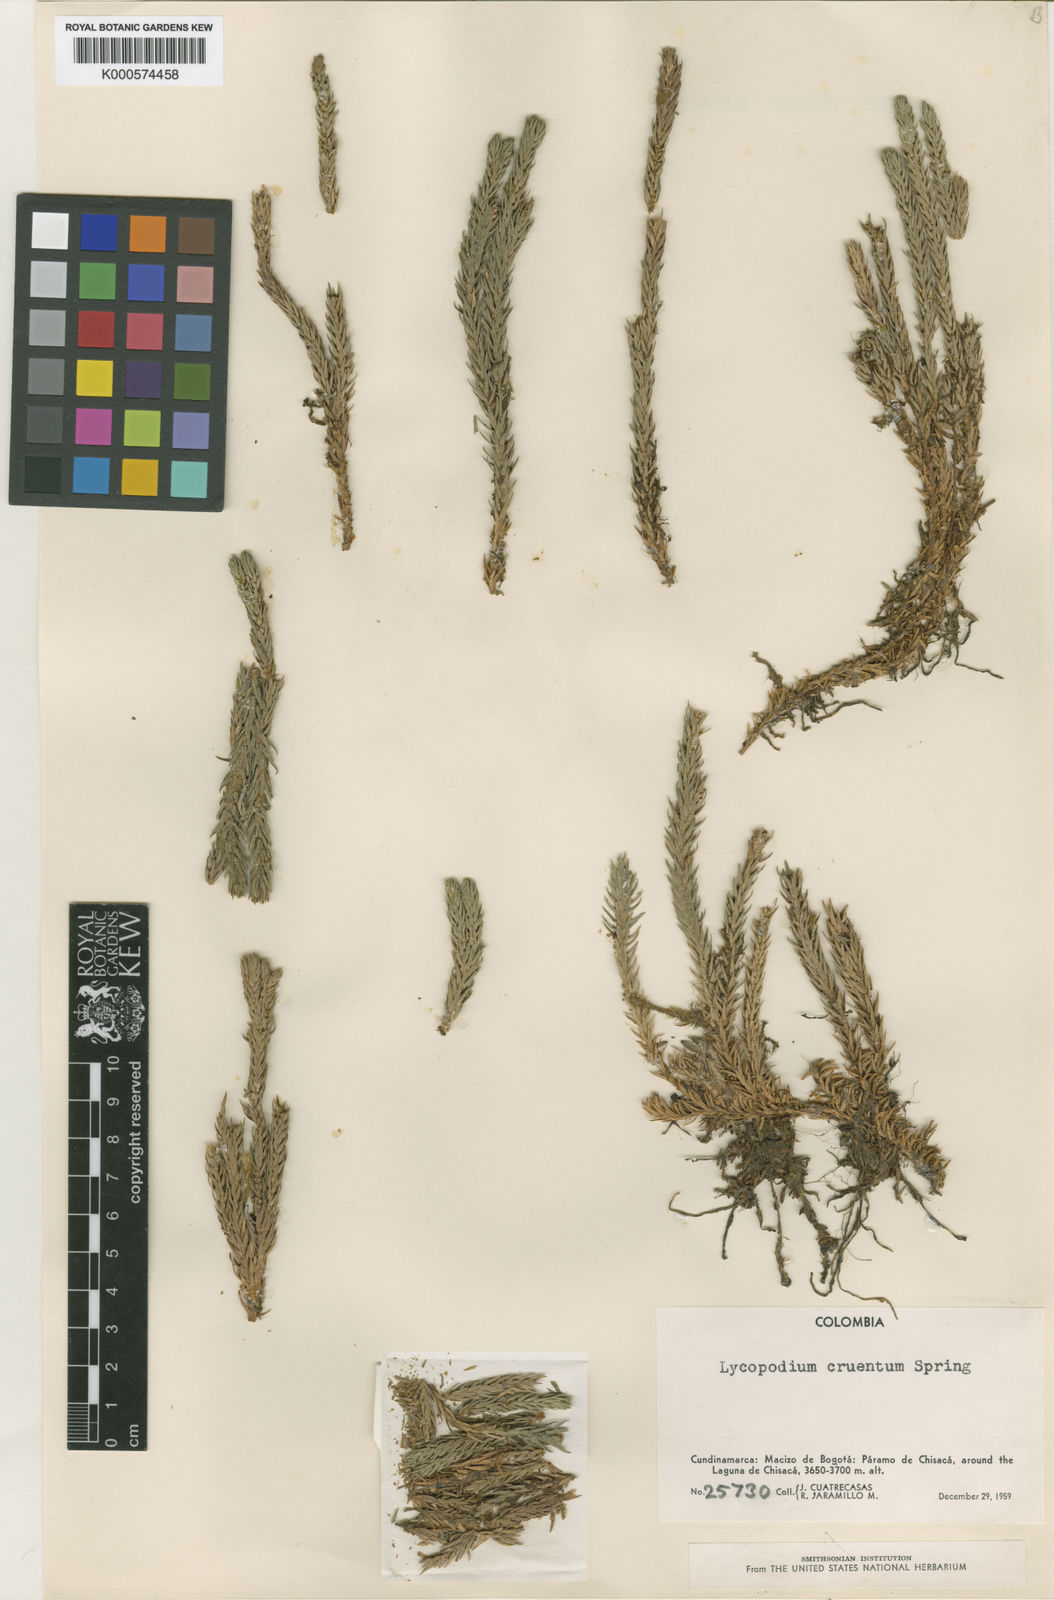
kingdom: Plantae
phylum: Tracheophyta
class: Lycopodiopsida
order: Lycopodiales
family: Lycopodiaceae
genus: Phlegmariurus
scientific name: Phlegmariurus cruentus
